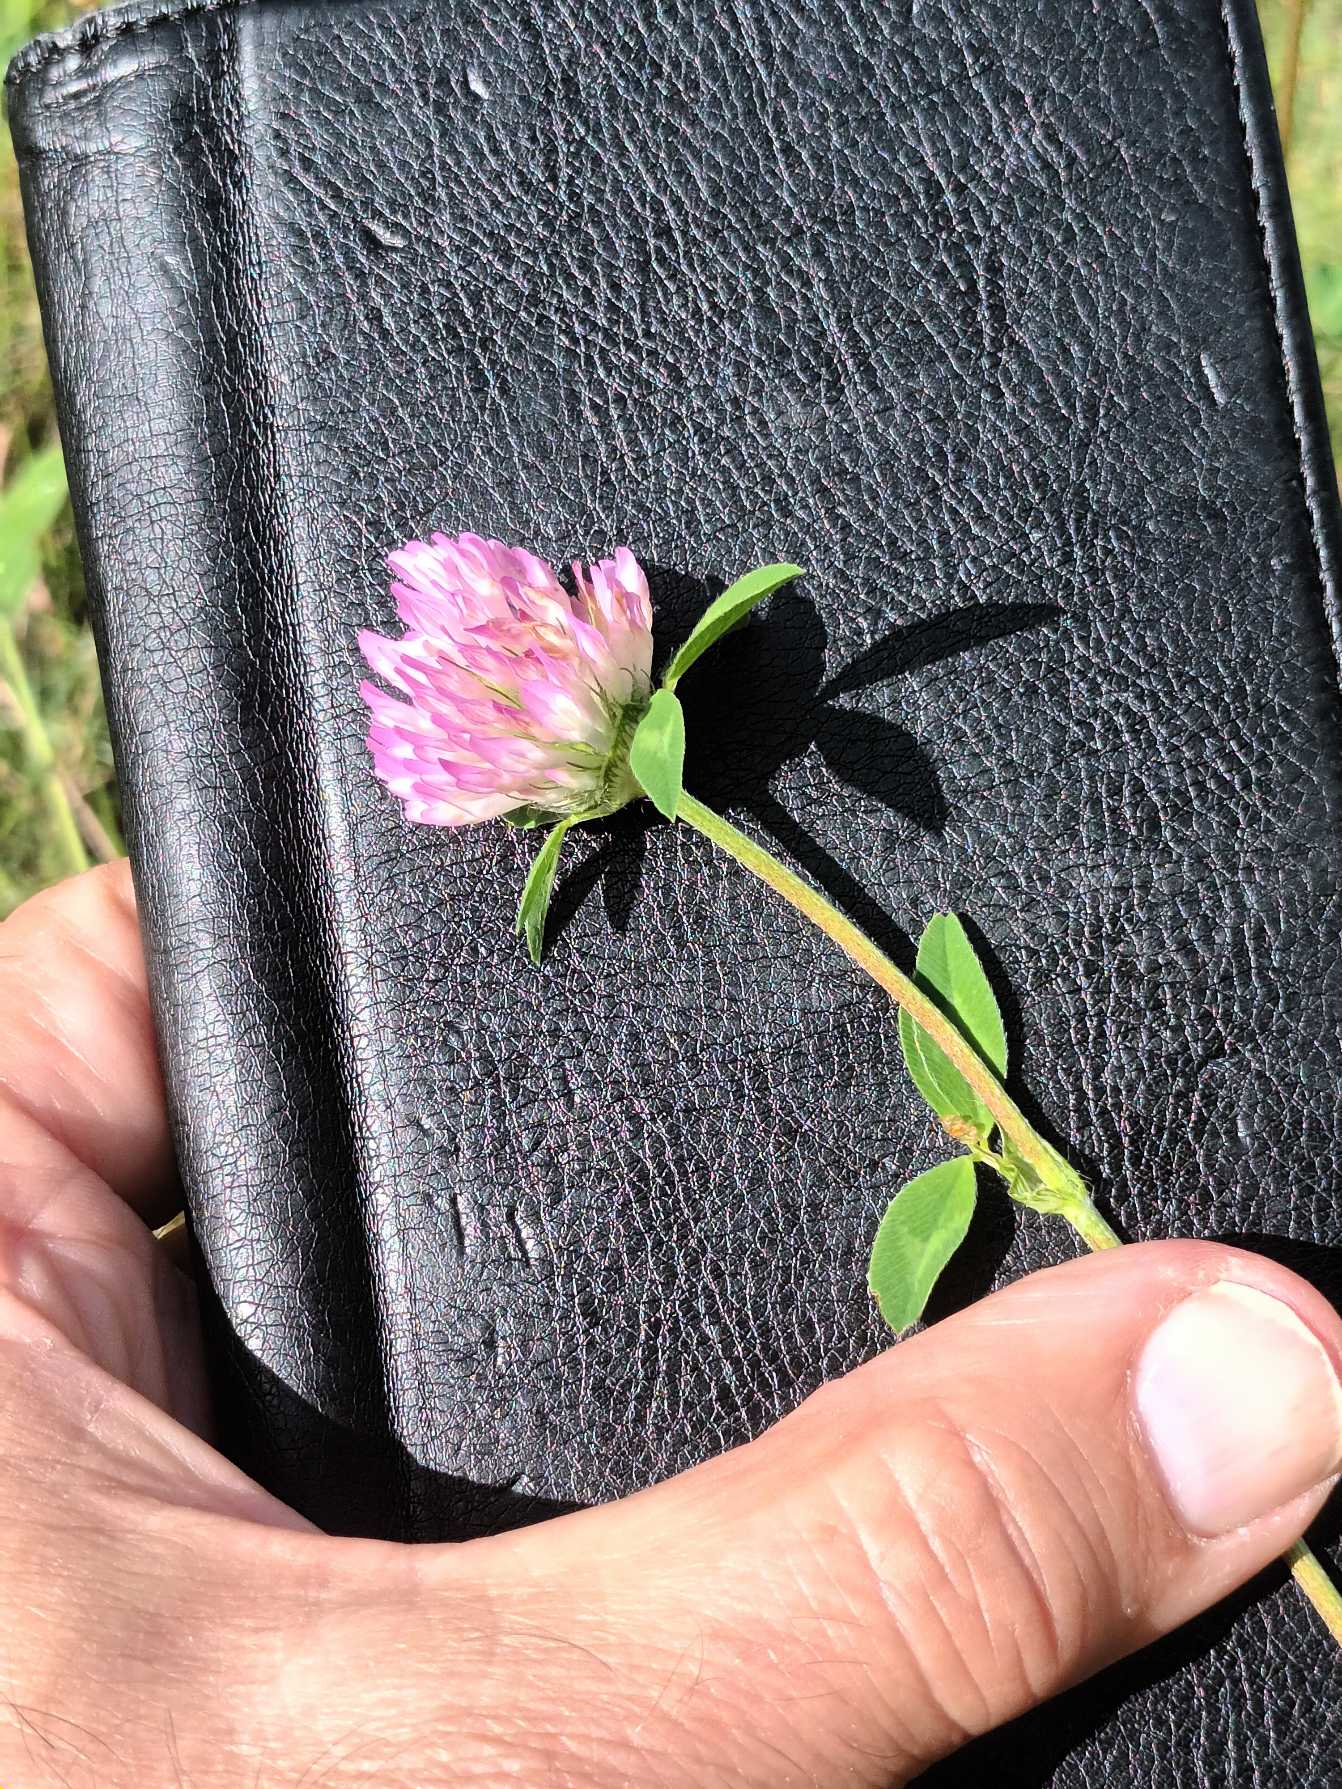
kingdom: Plantae
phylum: Tracheophyta
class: Magnoliopsida
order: Fabales
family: Fabaceae
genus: Trifolium
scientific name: Trifolium pratense
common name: Rød-kløver
